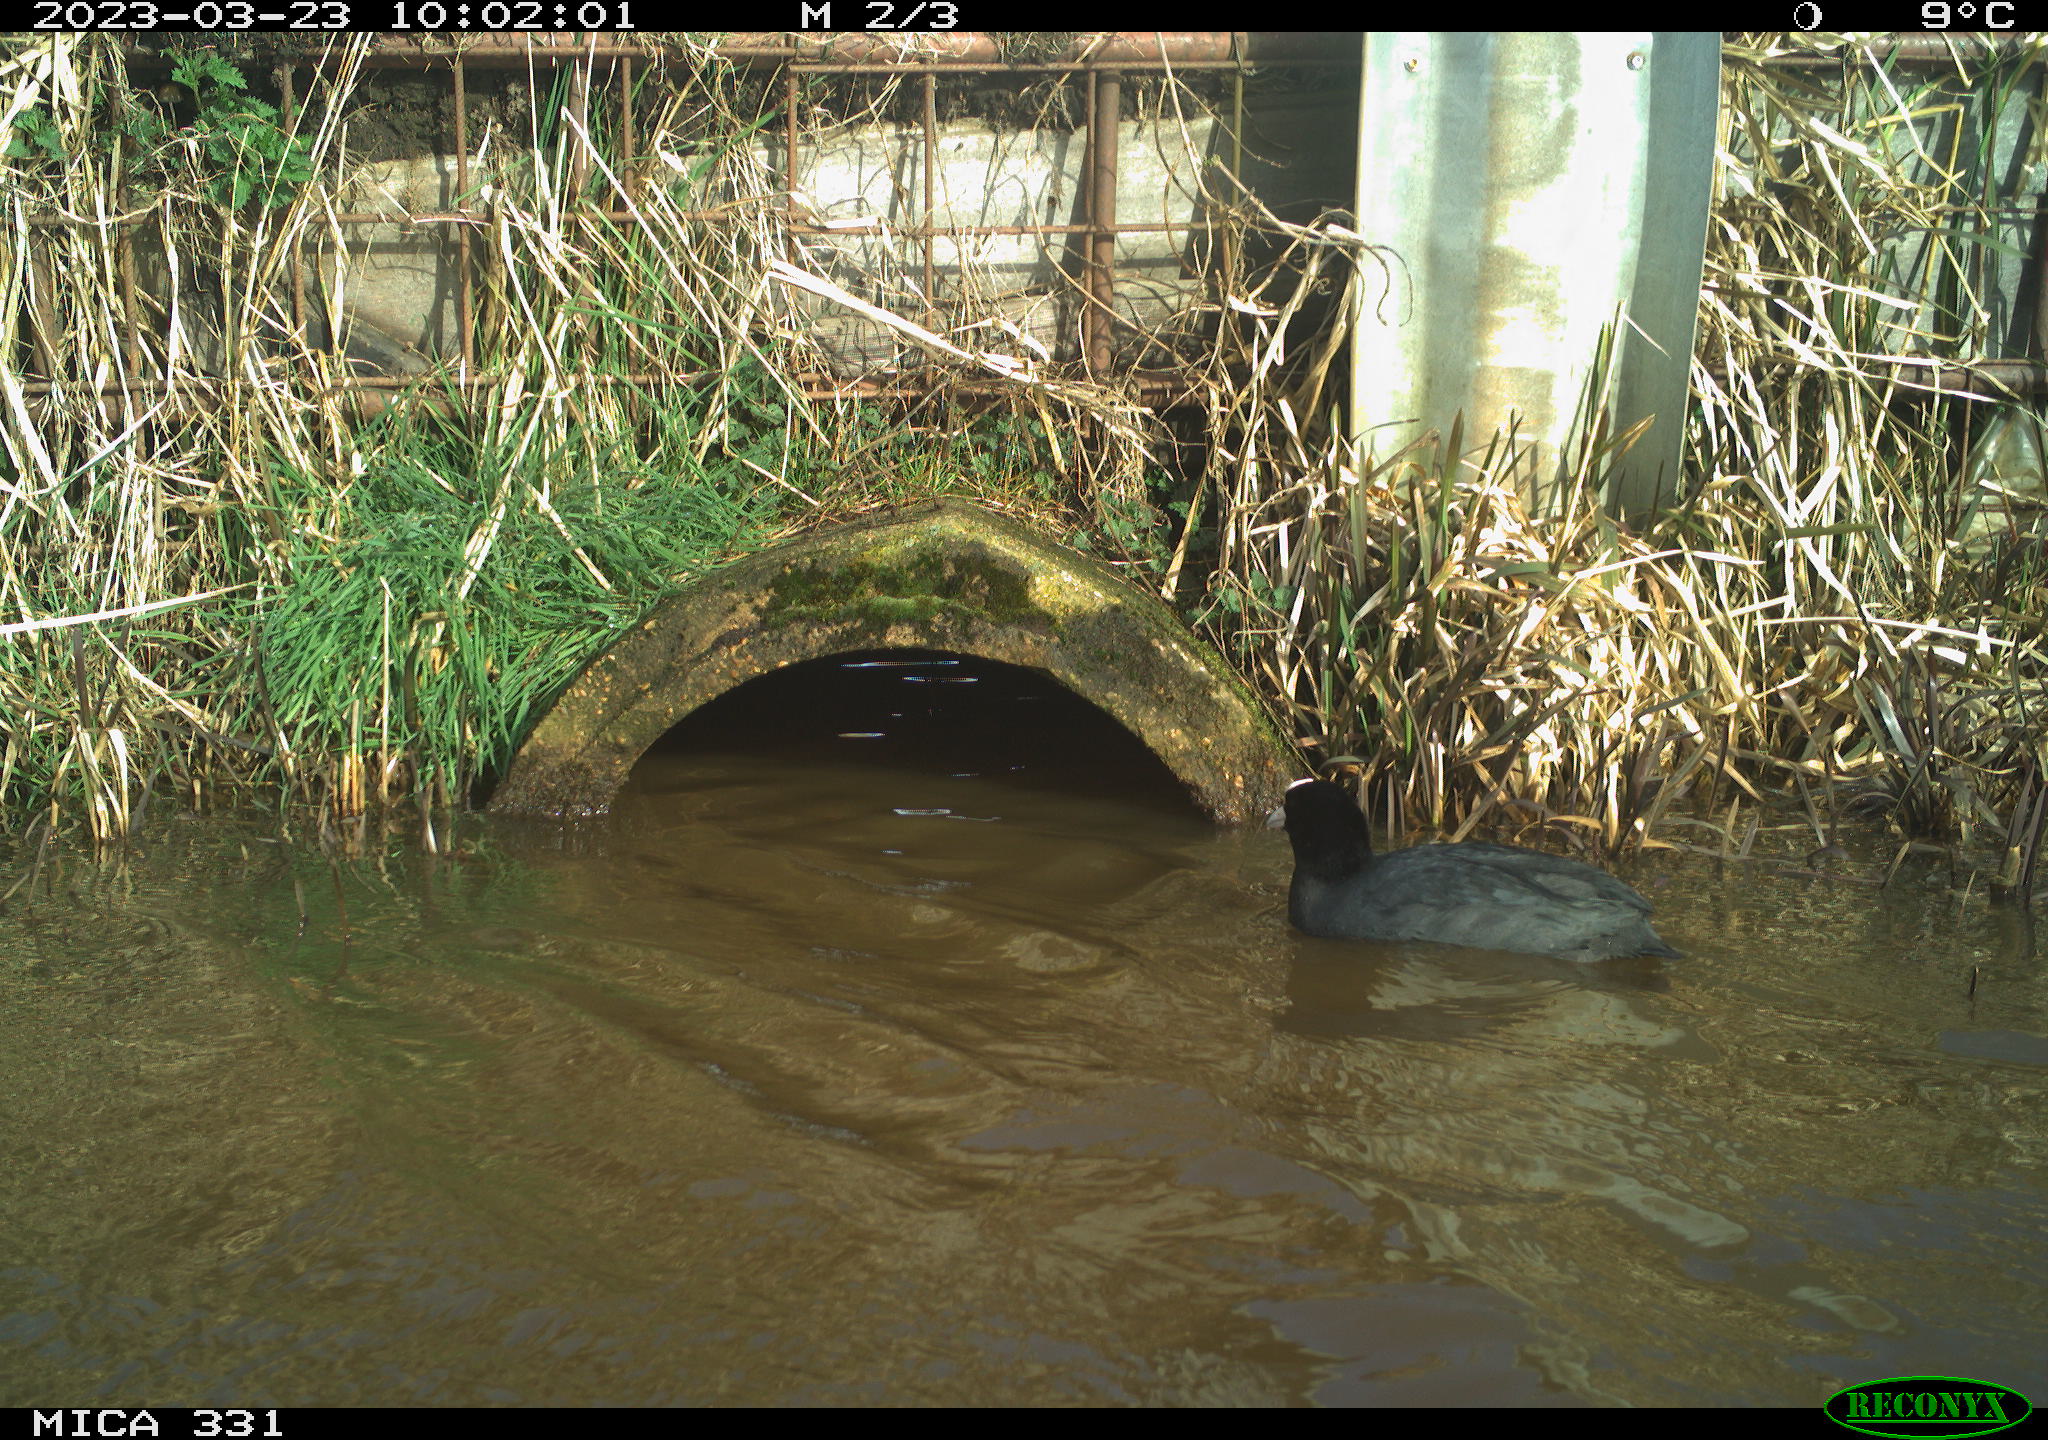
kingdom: Animalia
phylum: Chordata
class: Aves
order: Gruiformes
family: Rallidae
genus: Fulica
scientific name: Fulica atra
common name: Eurasian coot
